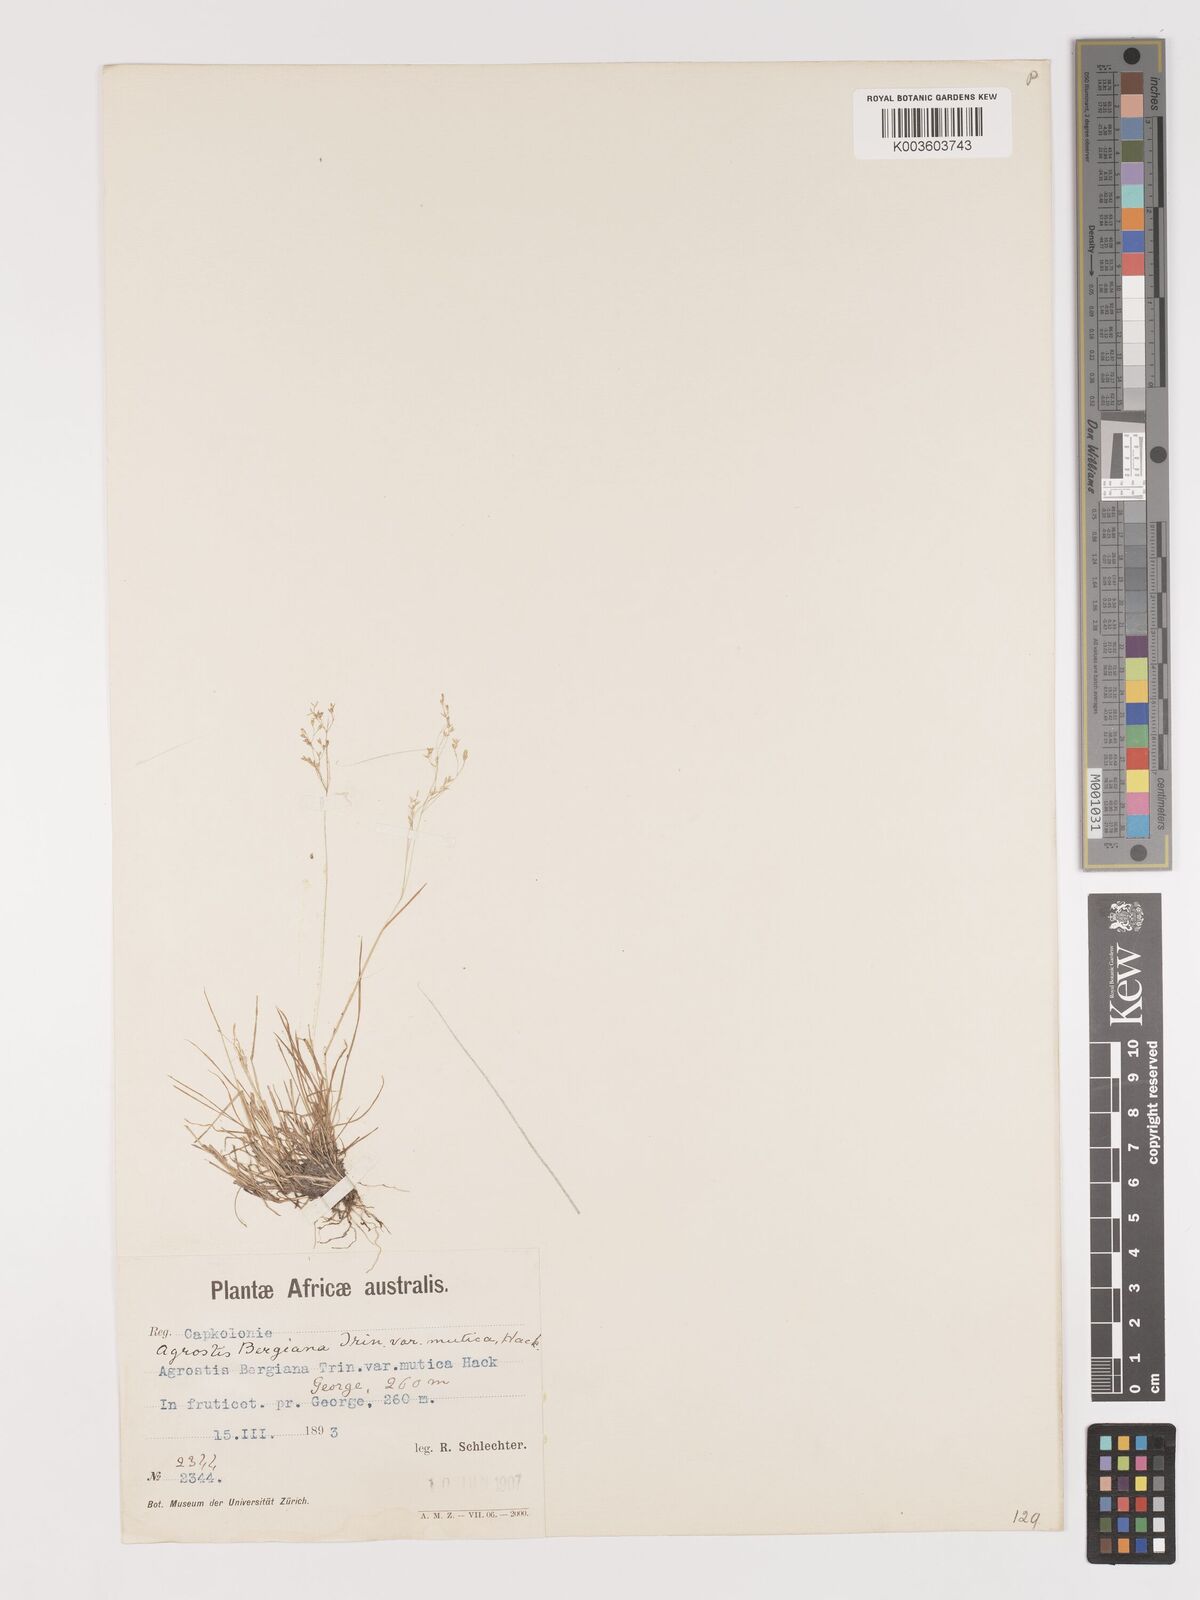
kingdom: Plantae
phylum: Tracheophyta
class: Liliopsida
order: Poales
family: Poaceae
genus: Agrostis
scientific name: Agrostis bergiana
